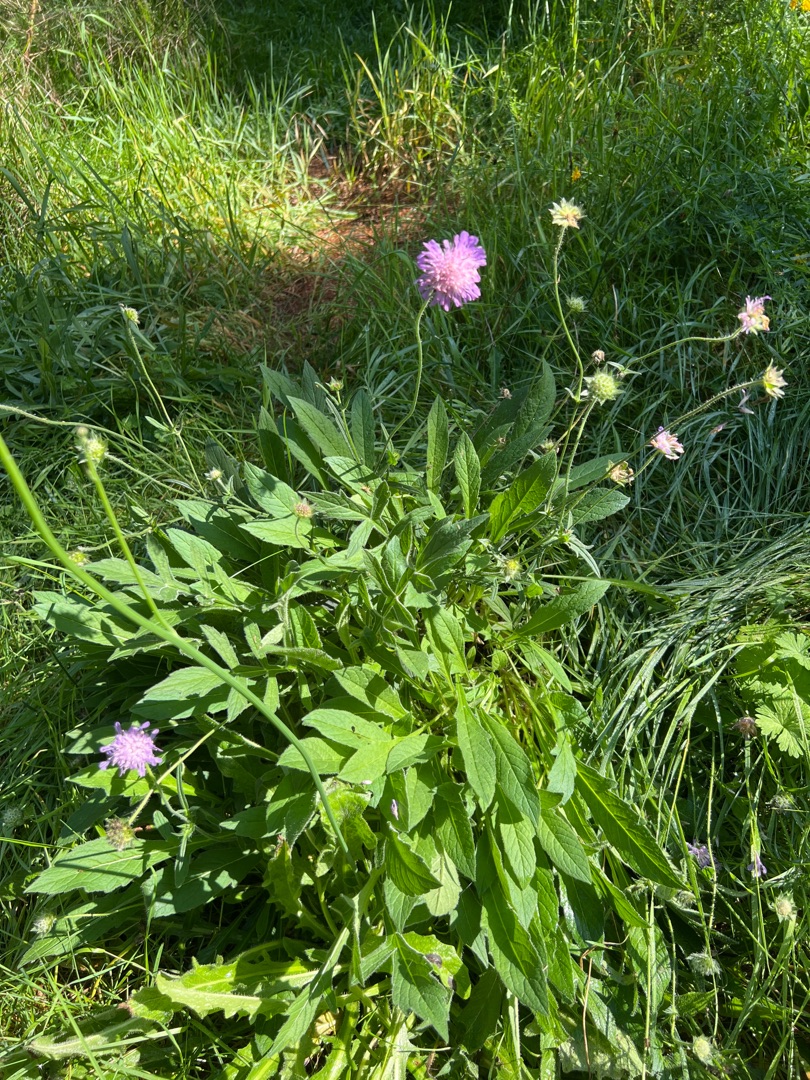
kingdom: Plantae
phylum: Tracheophyta
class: Magnoliopsida
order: Dipsacales
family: Caprifoliaceae
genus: Knautia
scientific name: Knautia arvensis
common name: Blåhat
